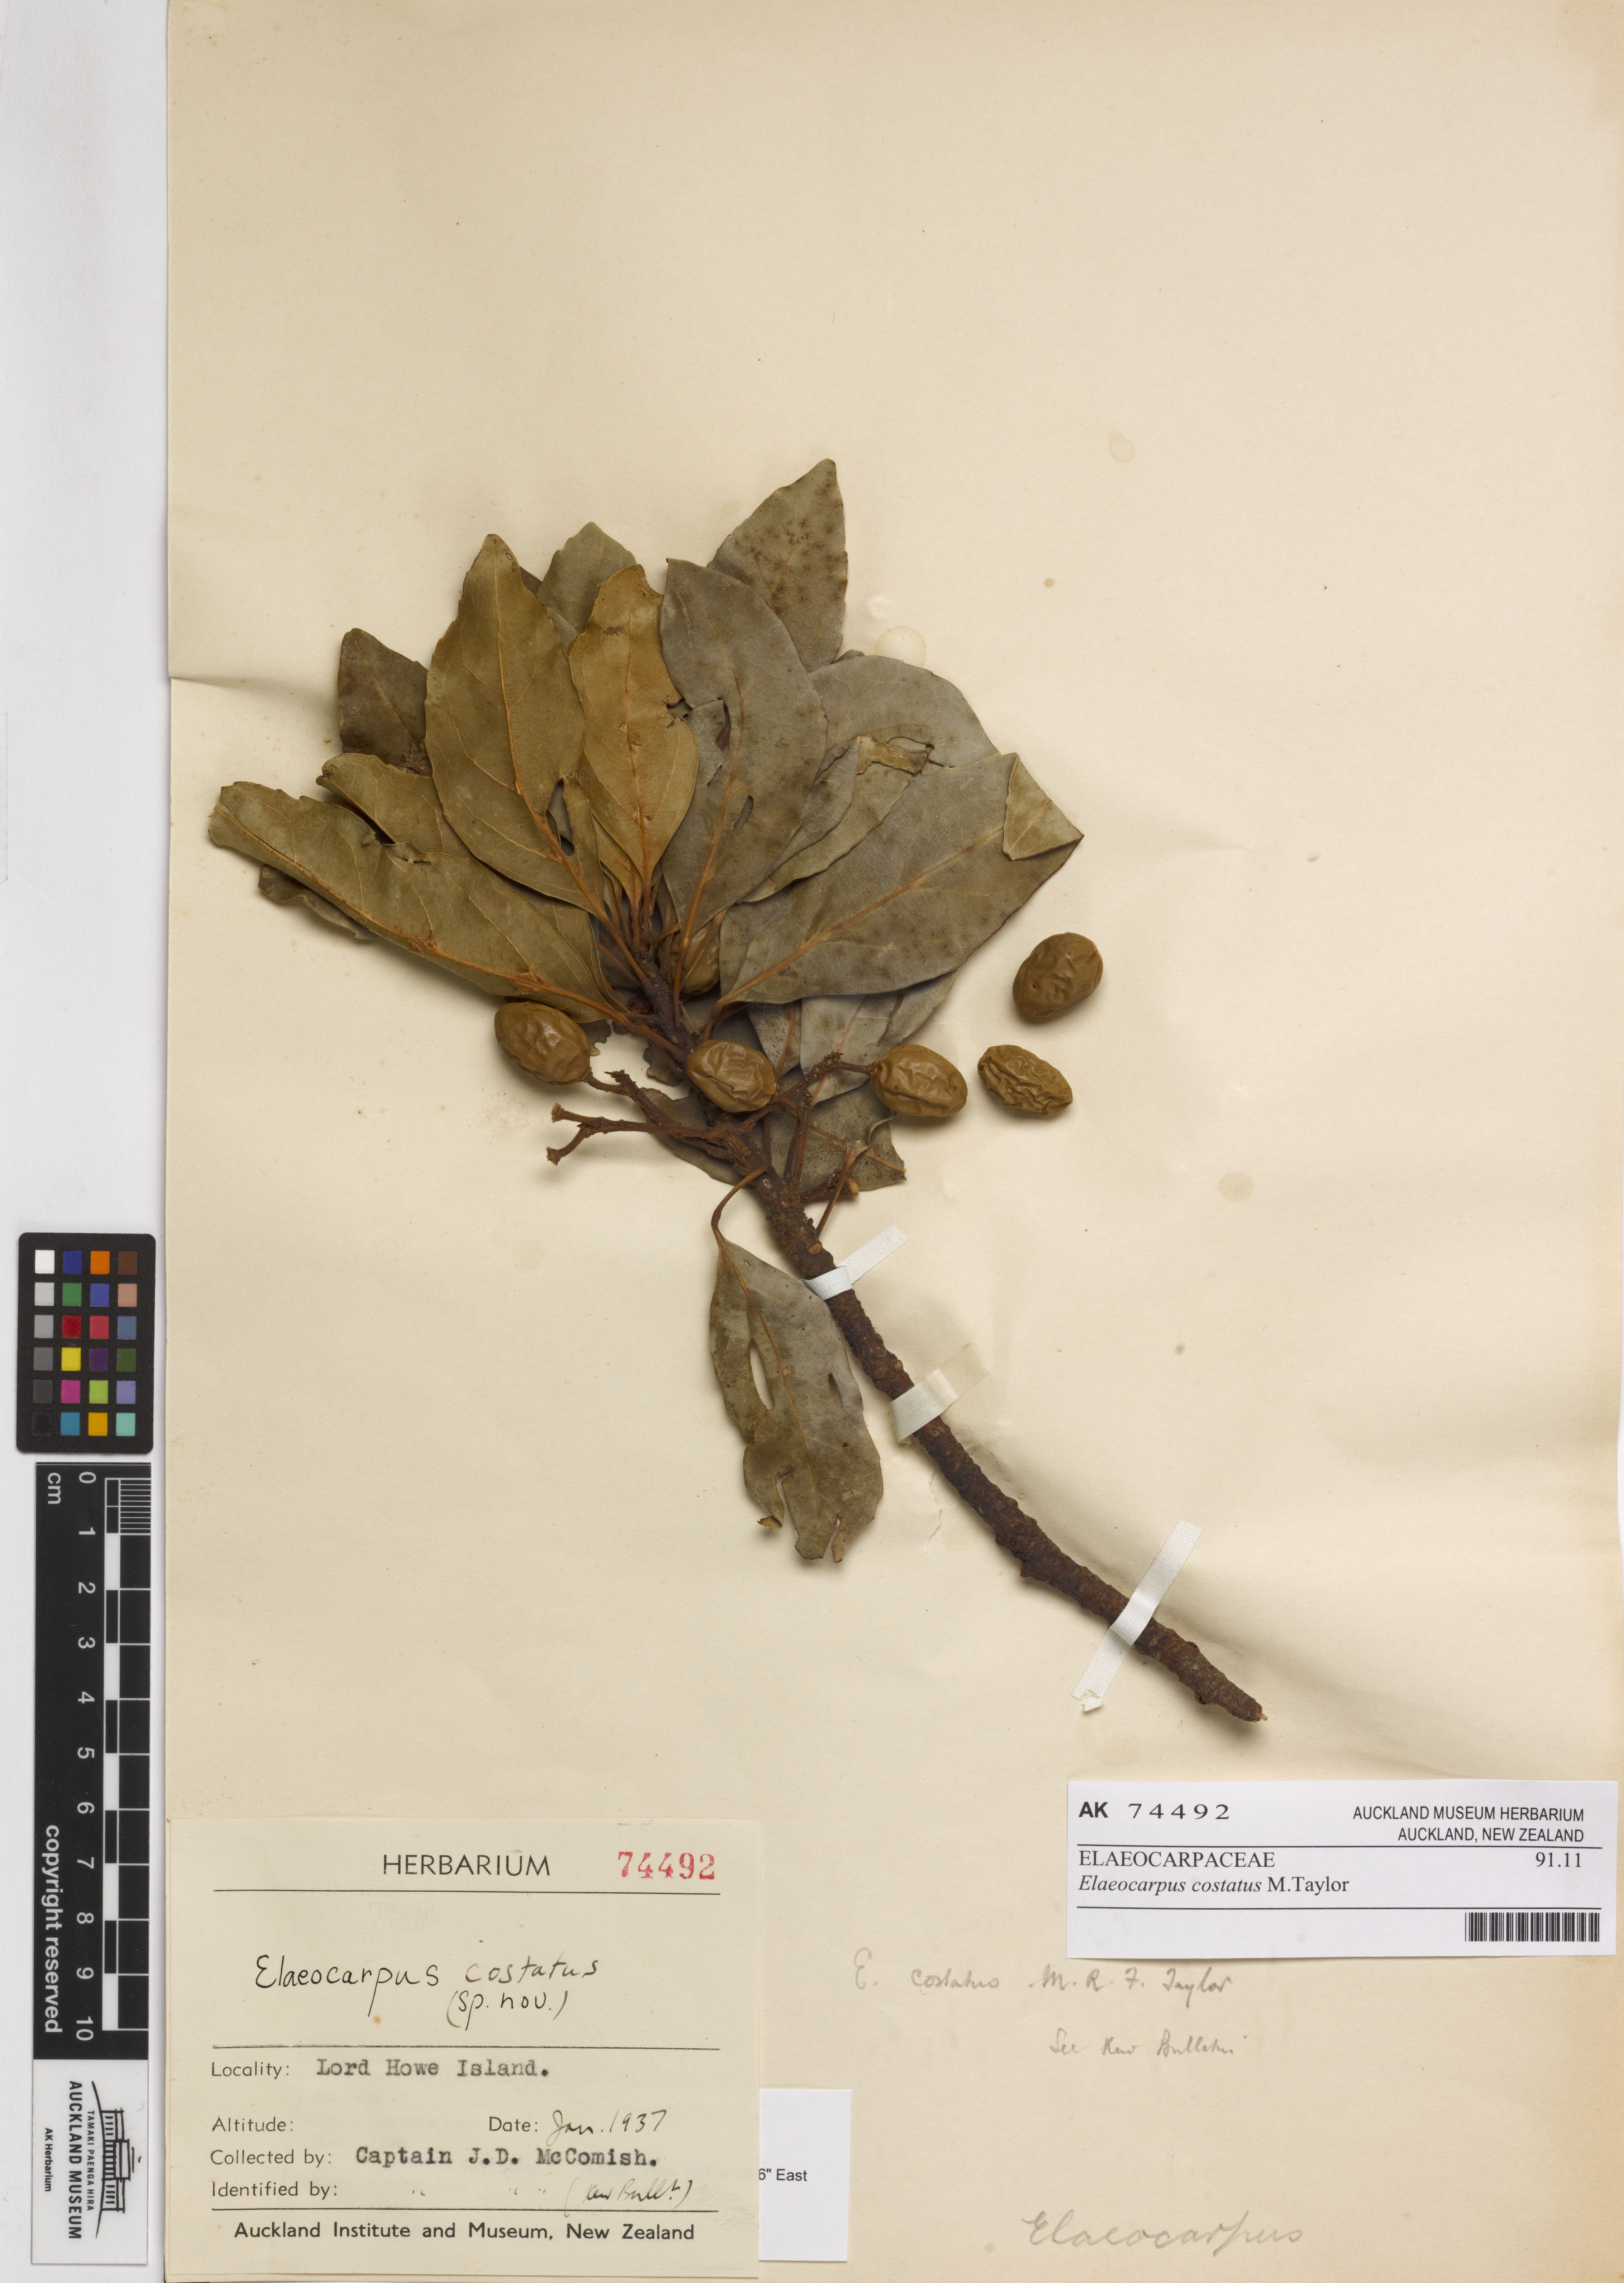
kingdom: Plantae
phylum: Tracheophyta
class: Magnoliopsida
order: Oxalidales
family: Elaeocarpaceae
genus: Elaeocarpus
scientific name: Elaeocarpus costatus
